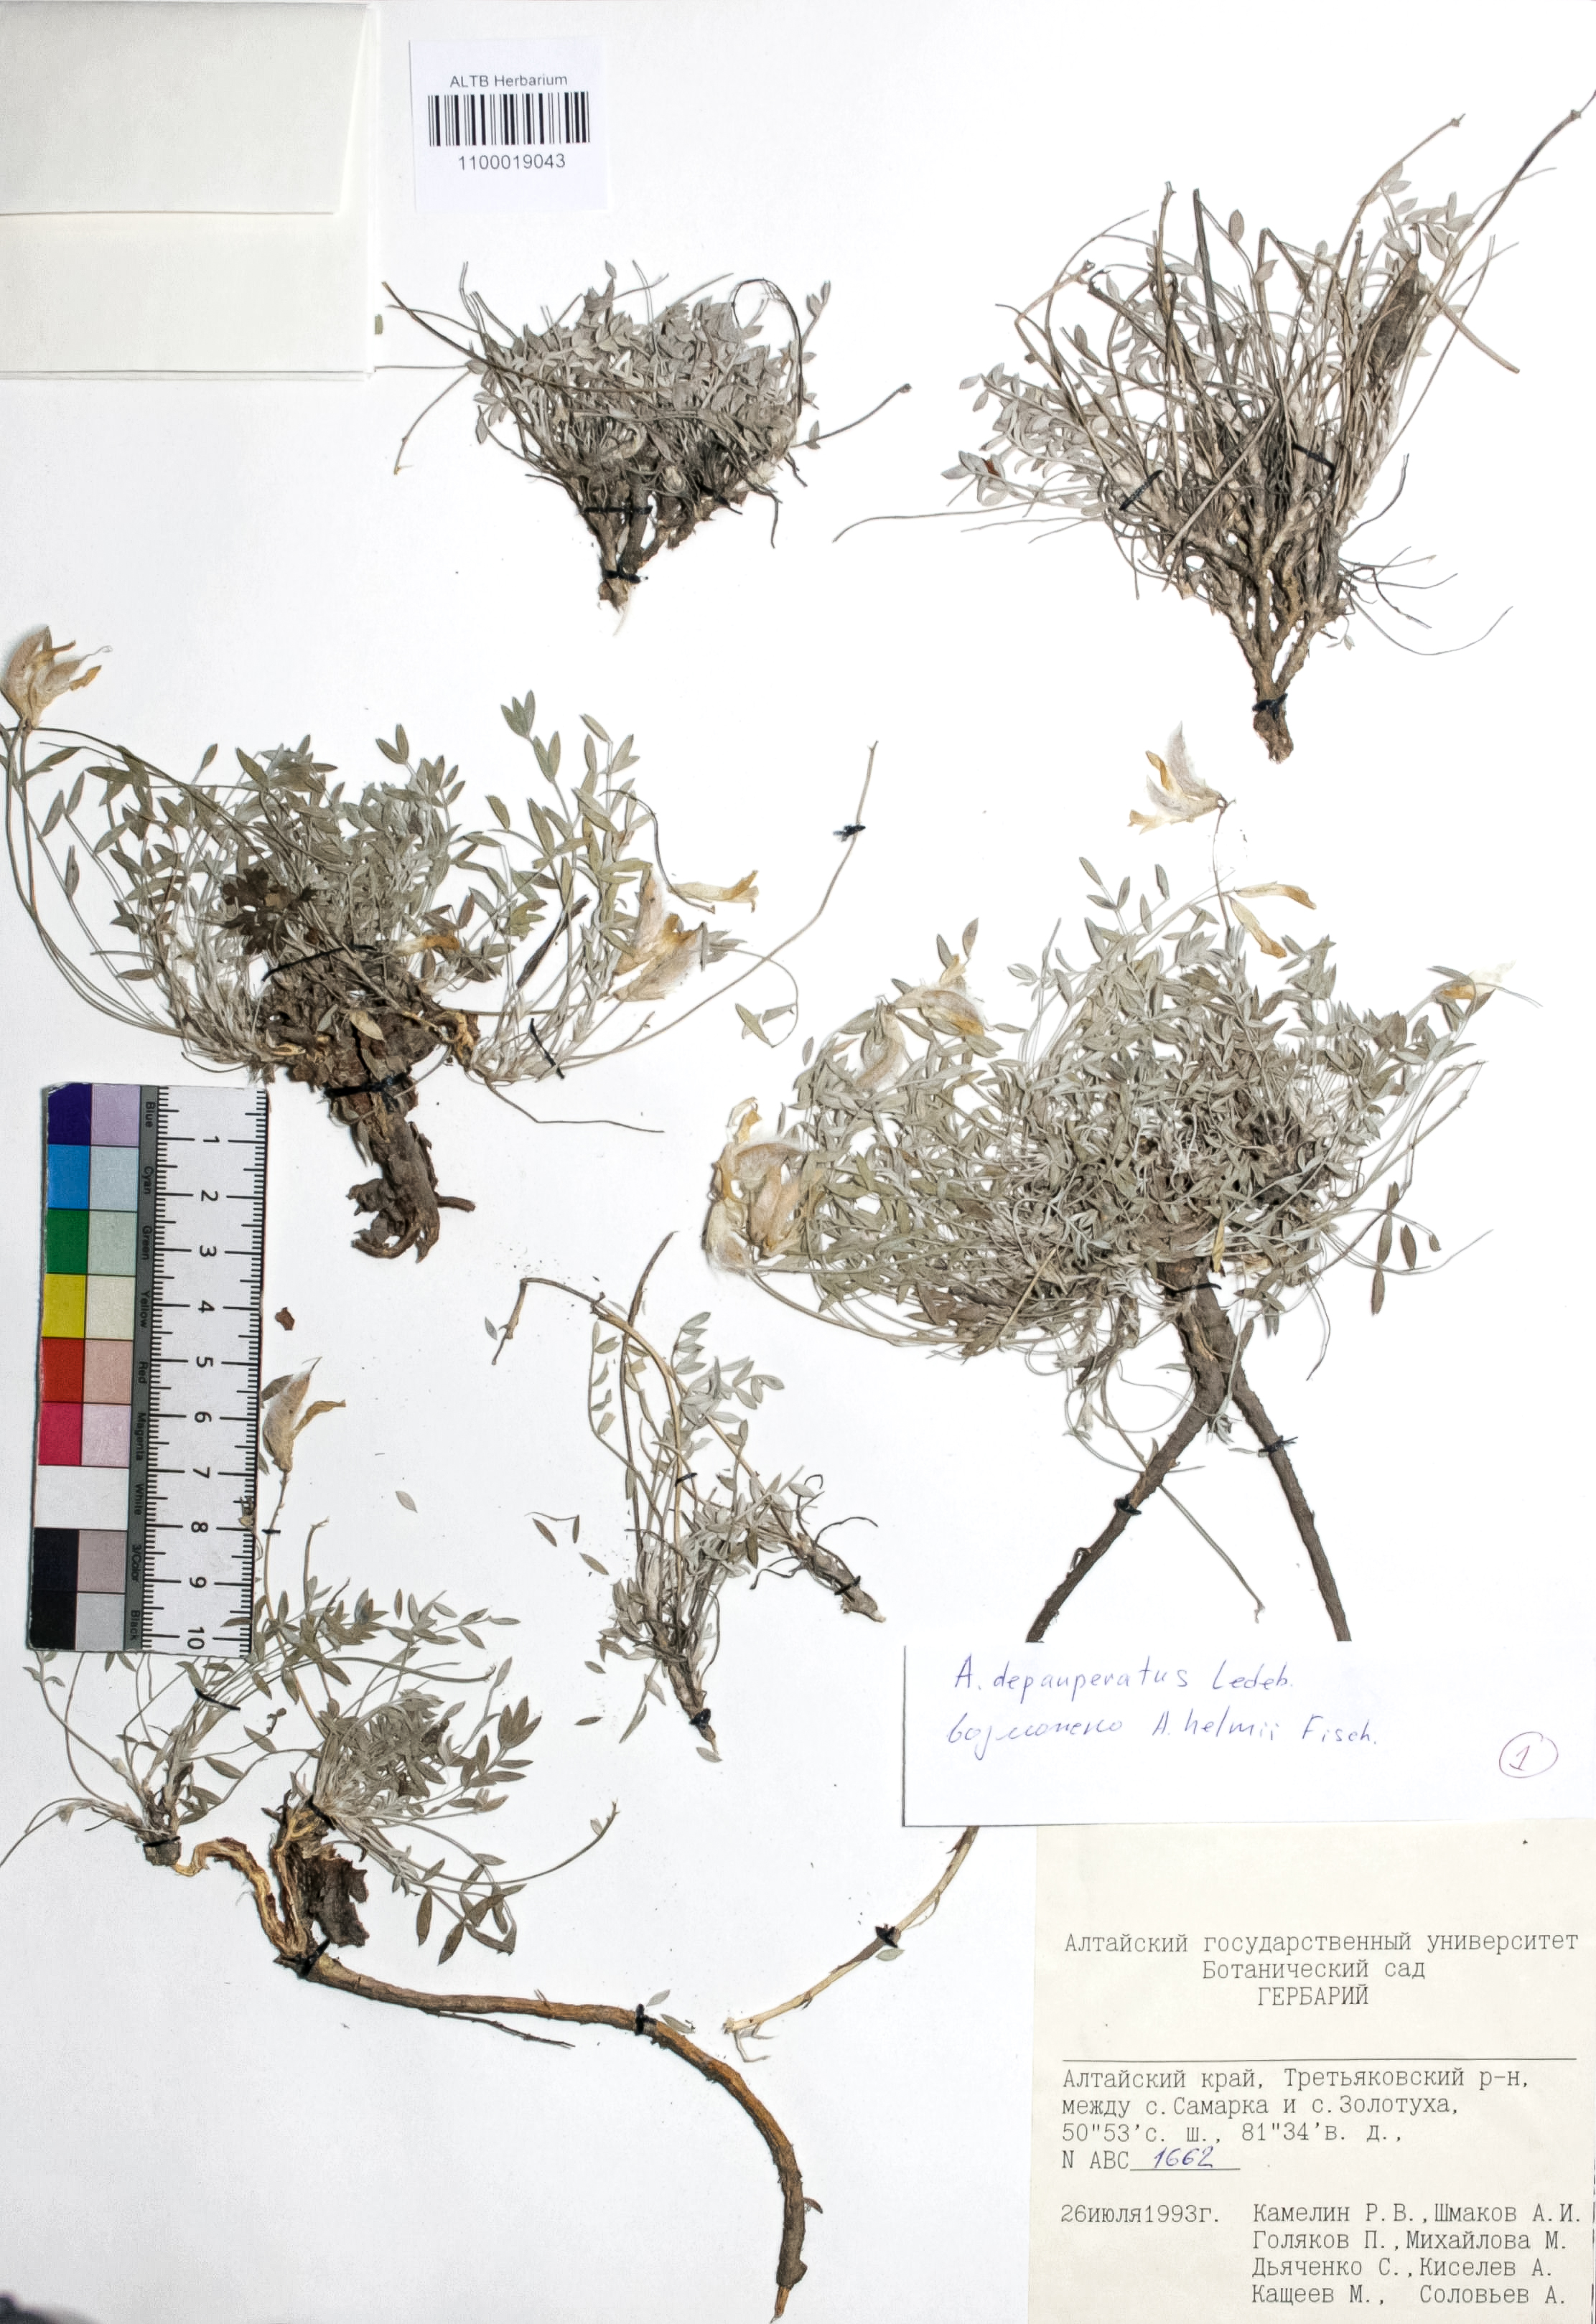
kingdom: Plantae
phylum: Tracheophyta
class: Magnoliopsida
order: Fabales
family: Fabaceae
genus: Astragalus
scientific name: Astragalus depauperatus
